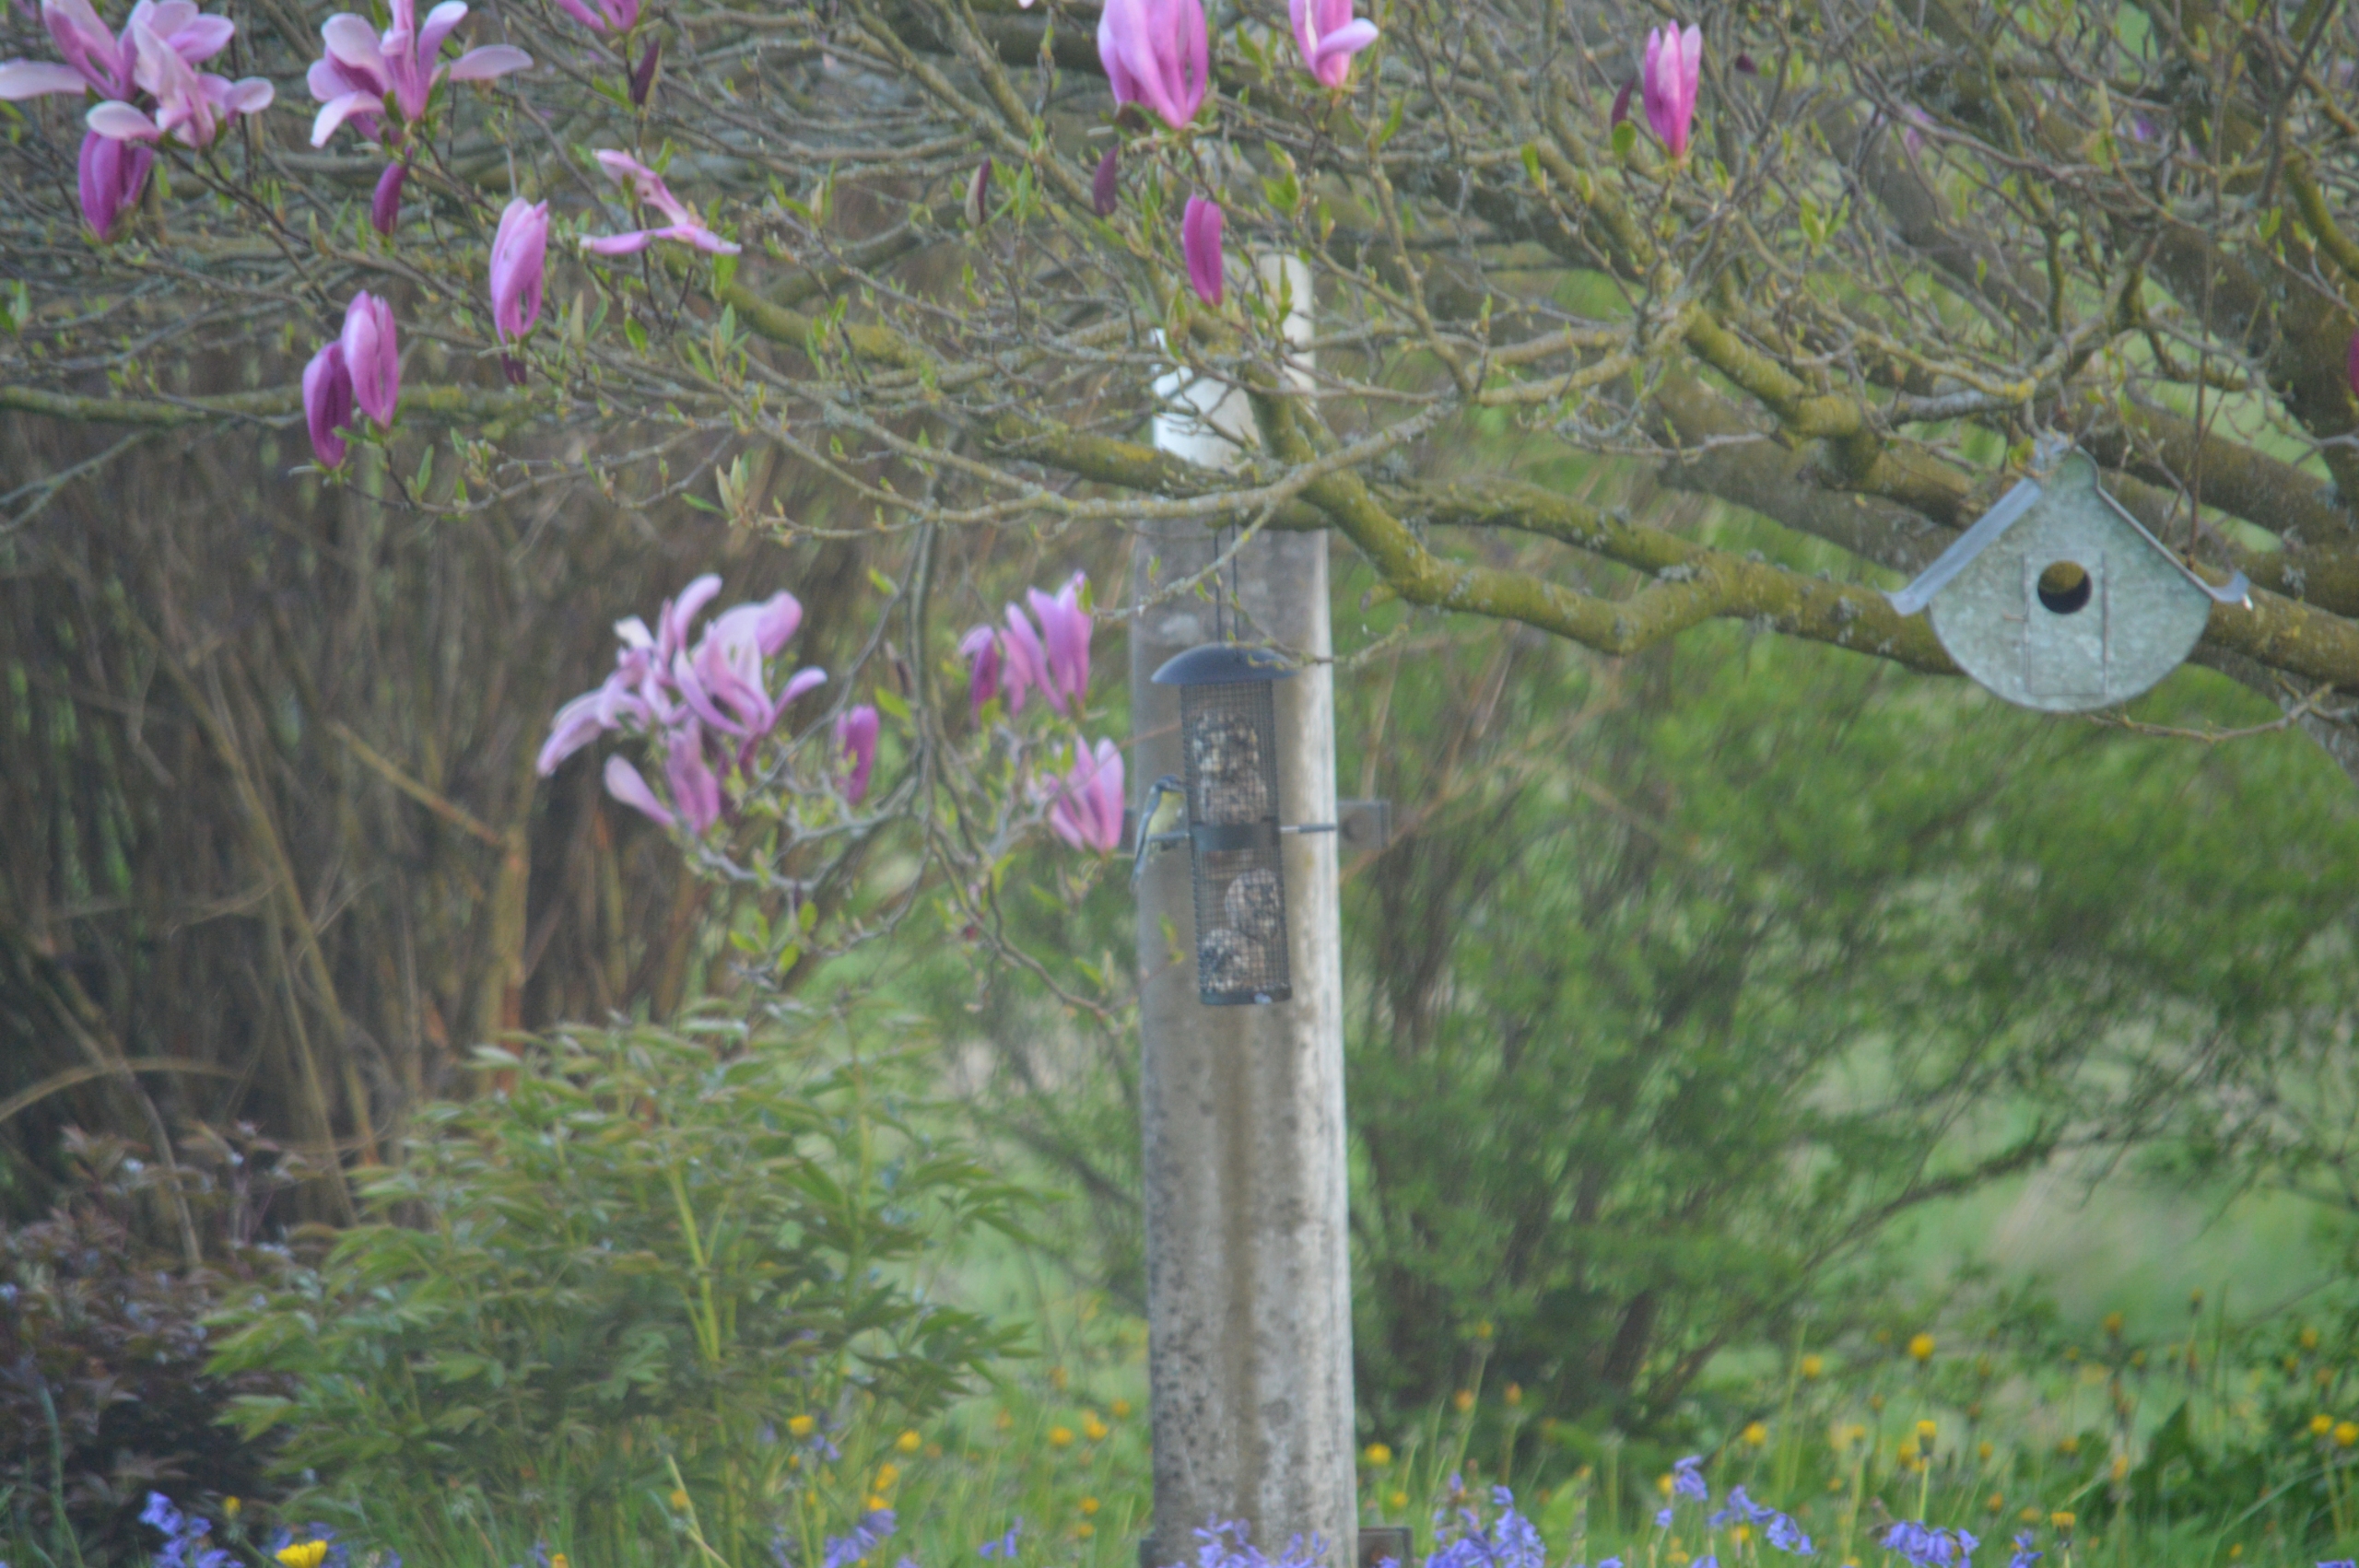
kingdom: Animalia
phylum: Chordata
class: Aves
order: Passeriformes
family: Paridae
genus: Cyanistes
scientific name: Cyanistes caeruleus
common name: Blåmejse
